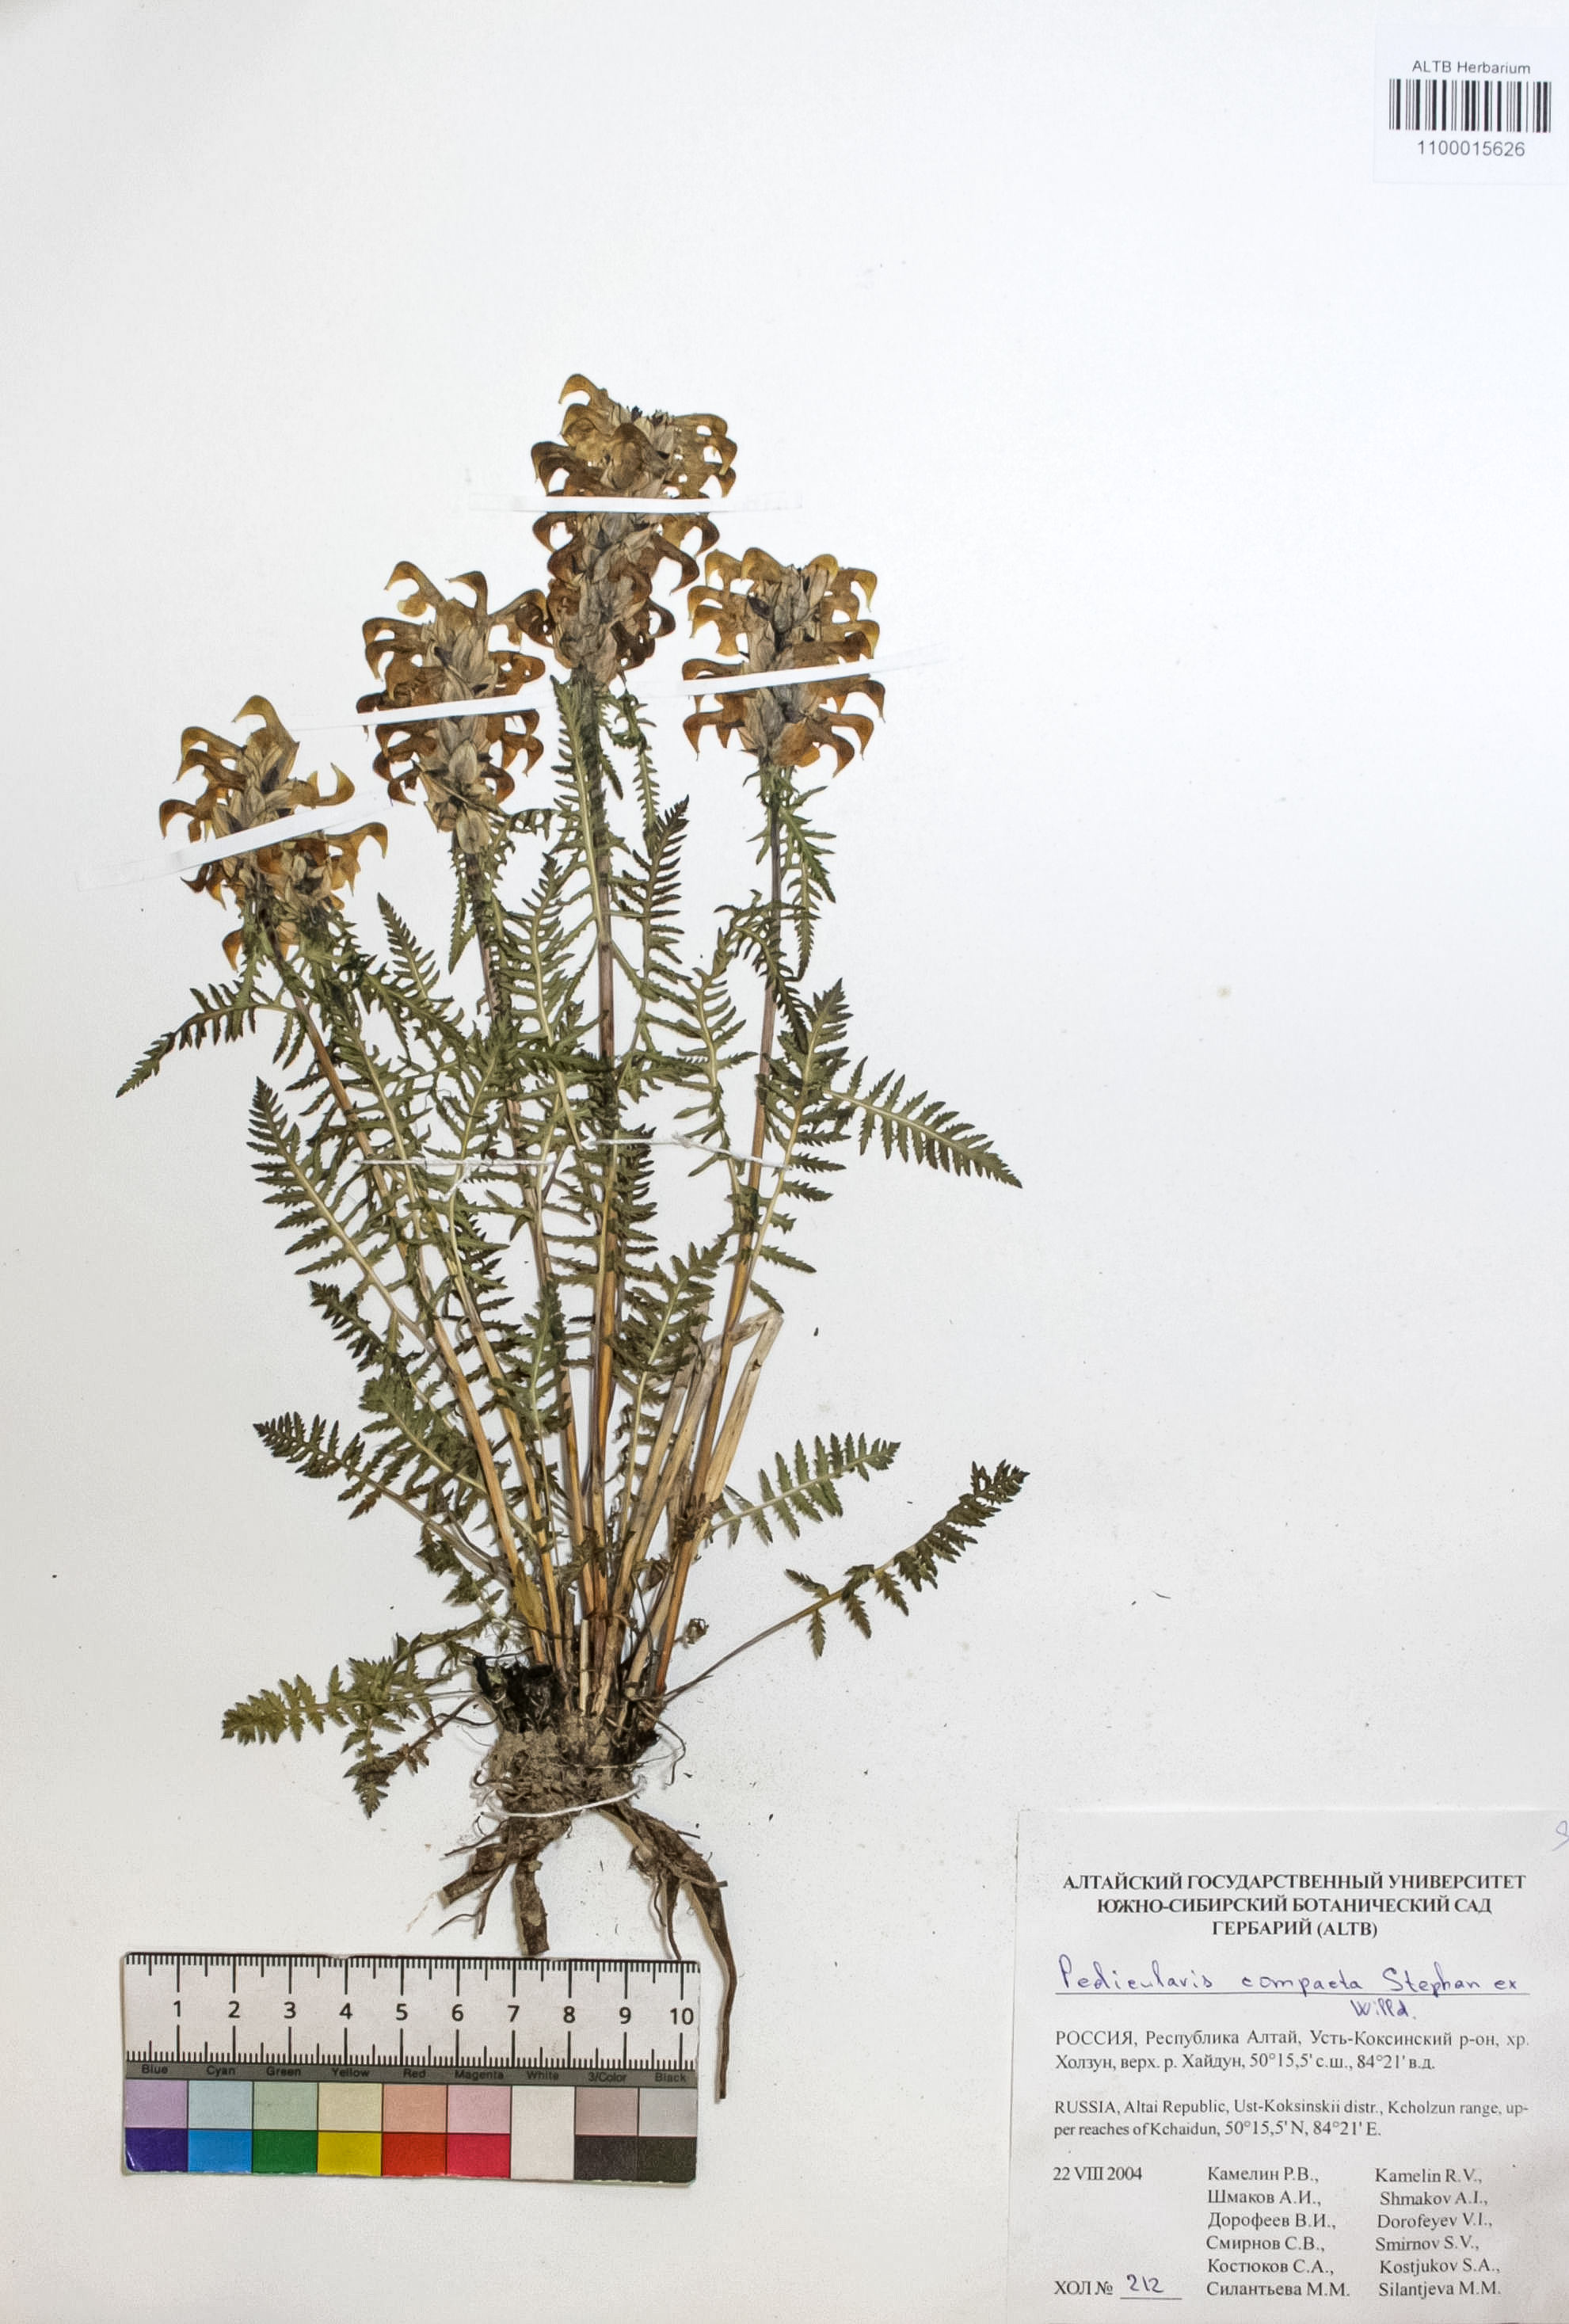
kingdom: Plantae
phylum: Tracheophyta
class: Magnoliopsida
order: Lamiales
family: Orobanchaceae
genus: Pedicularis
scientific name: Pedicularis compacta
